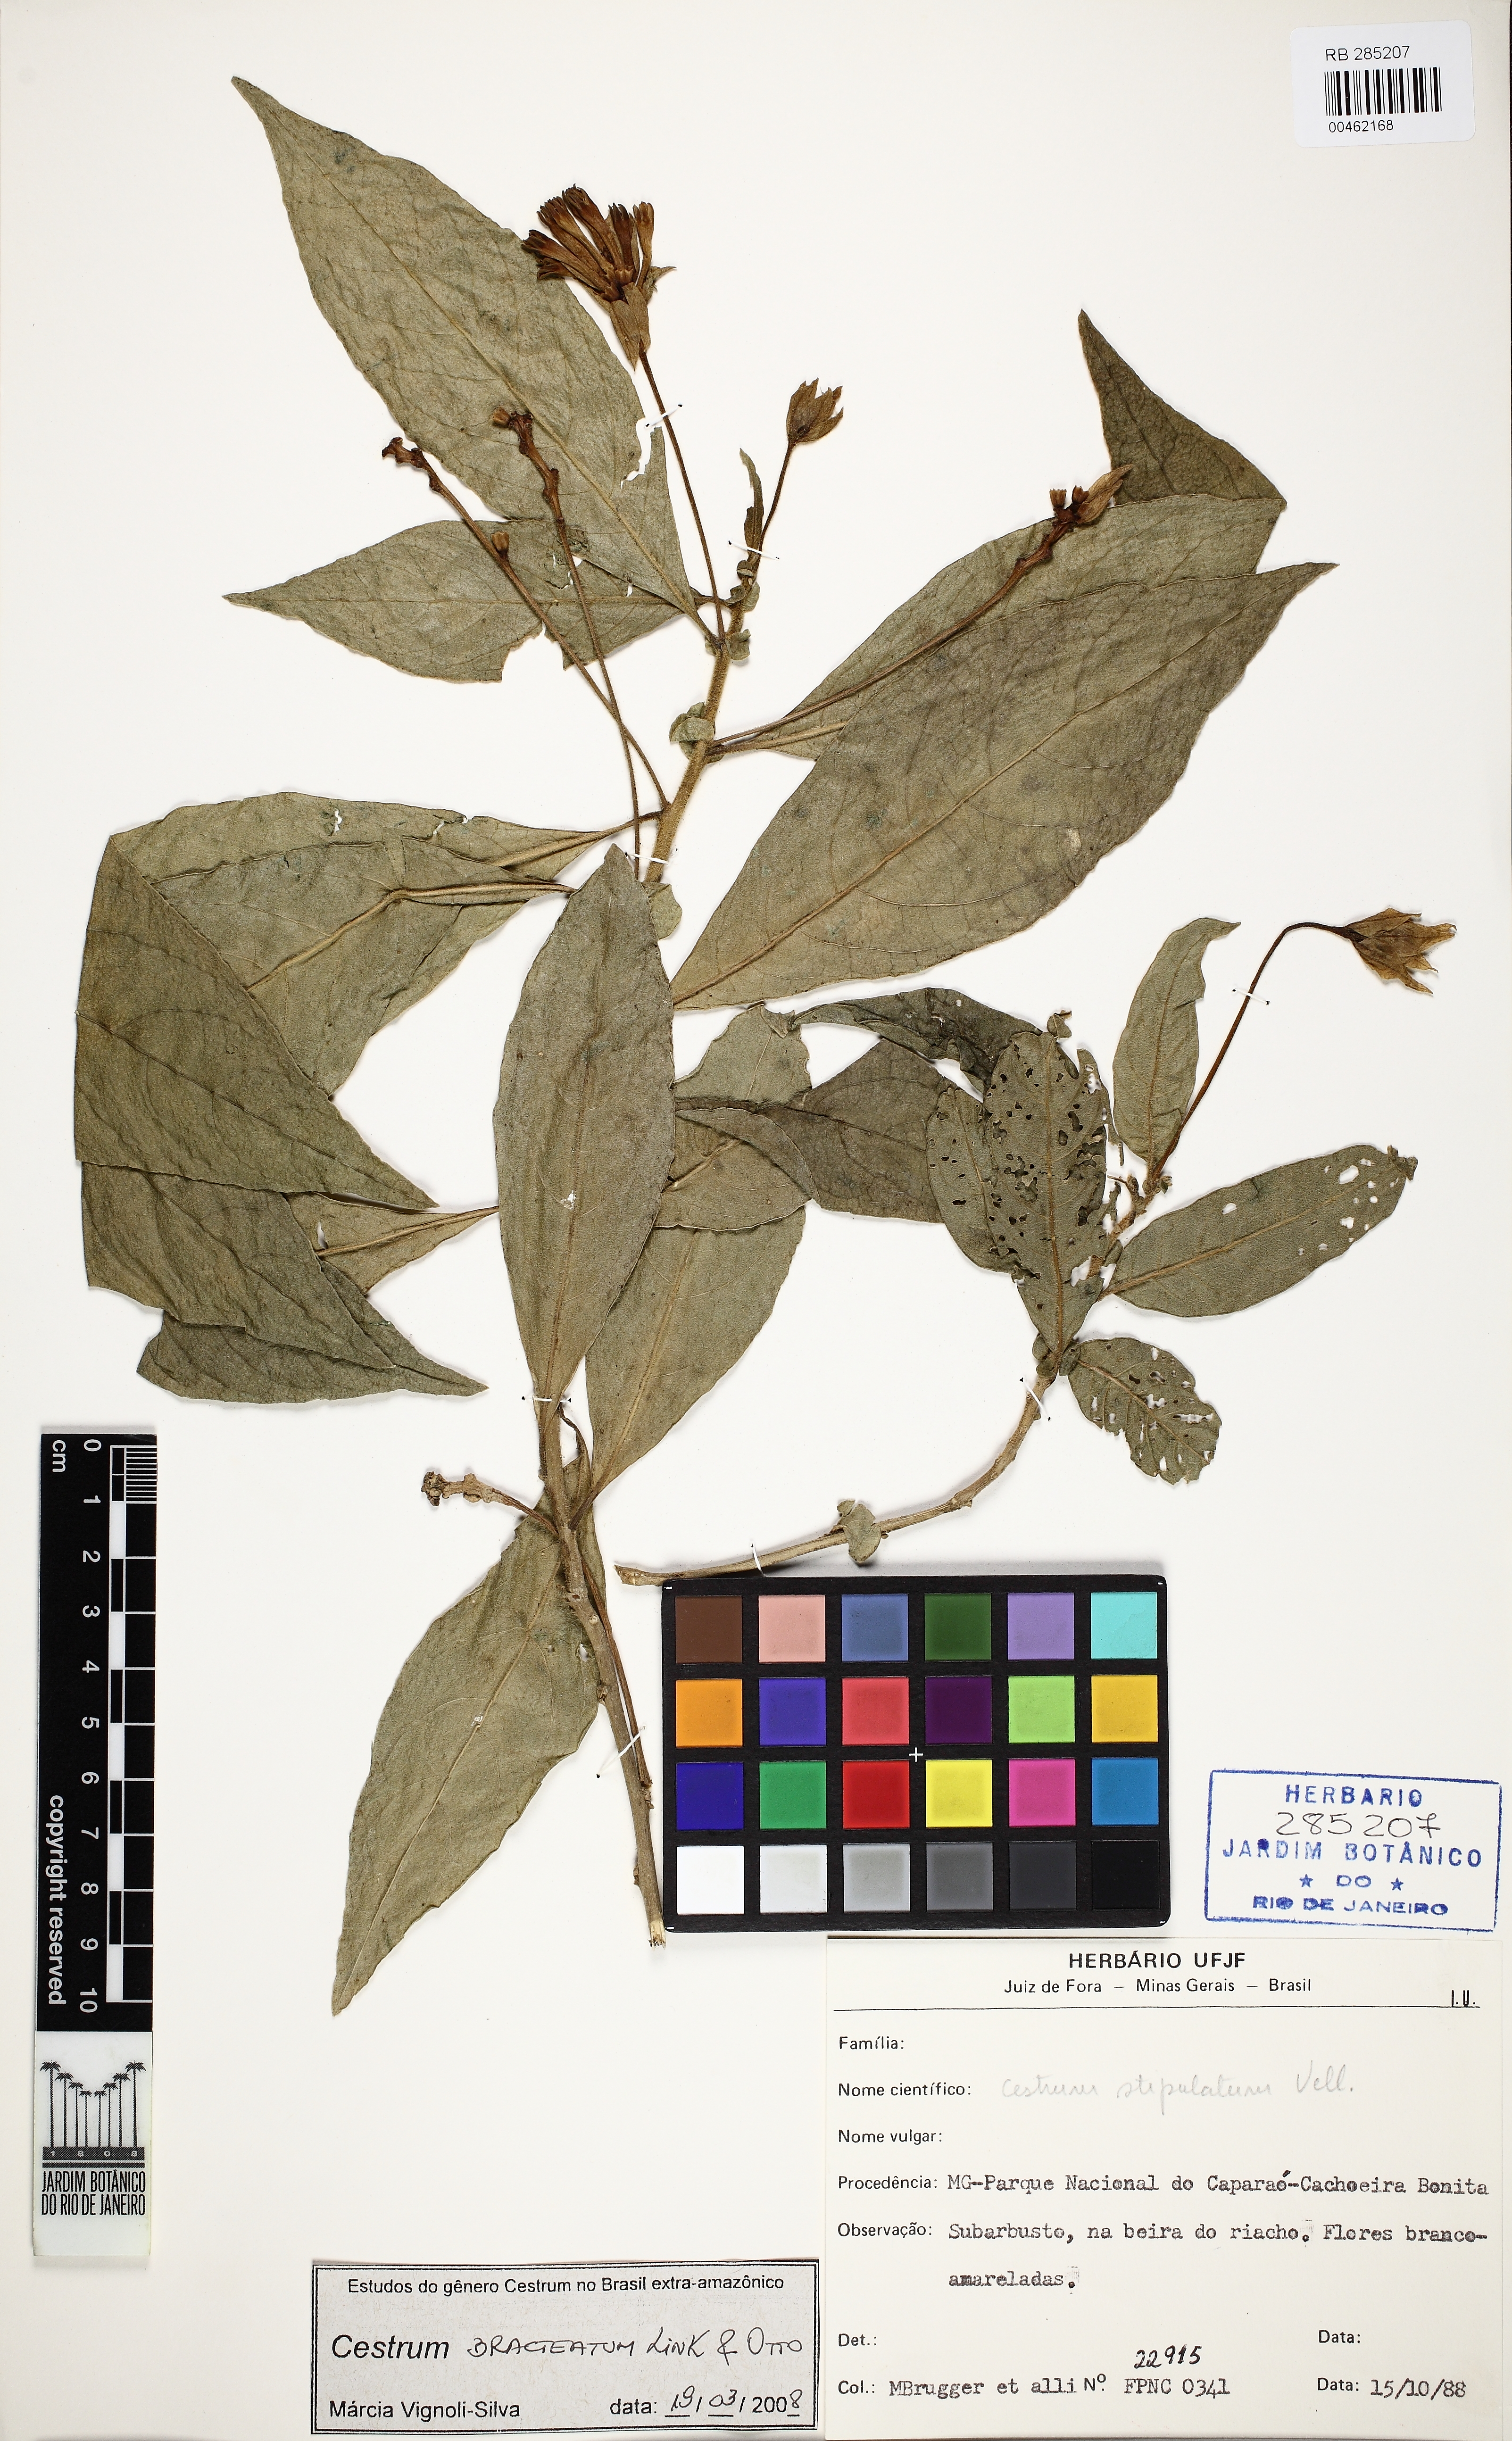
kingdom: Plantae
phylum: Tracheophyta
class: Magnoliopsida
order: Solanales
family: Solanaceae
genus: Cestrum
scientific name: Cestrum bracteatum
